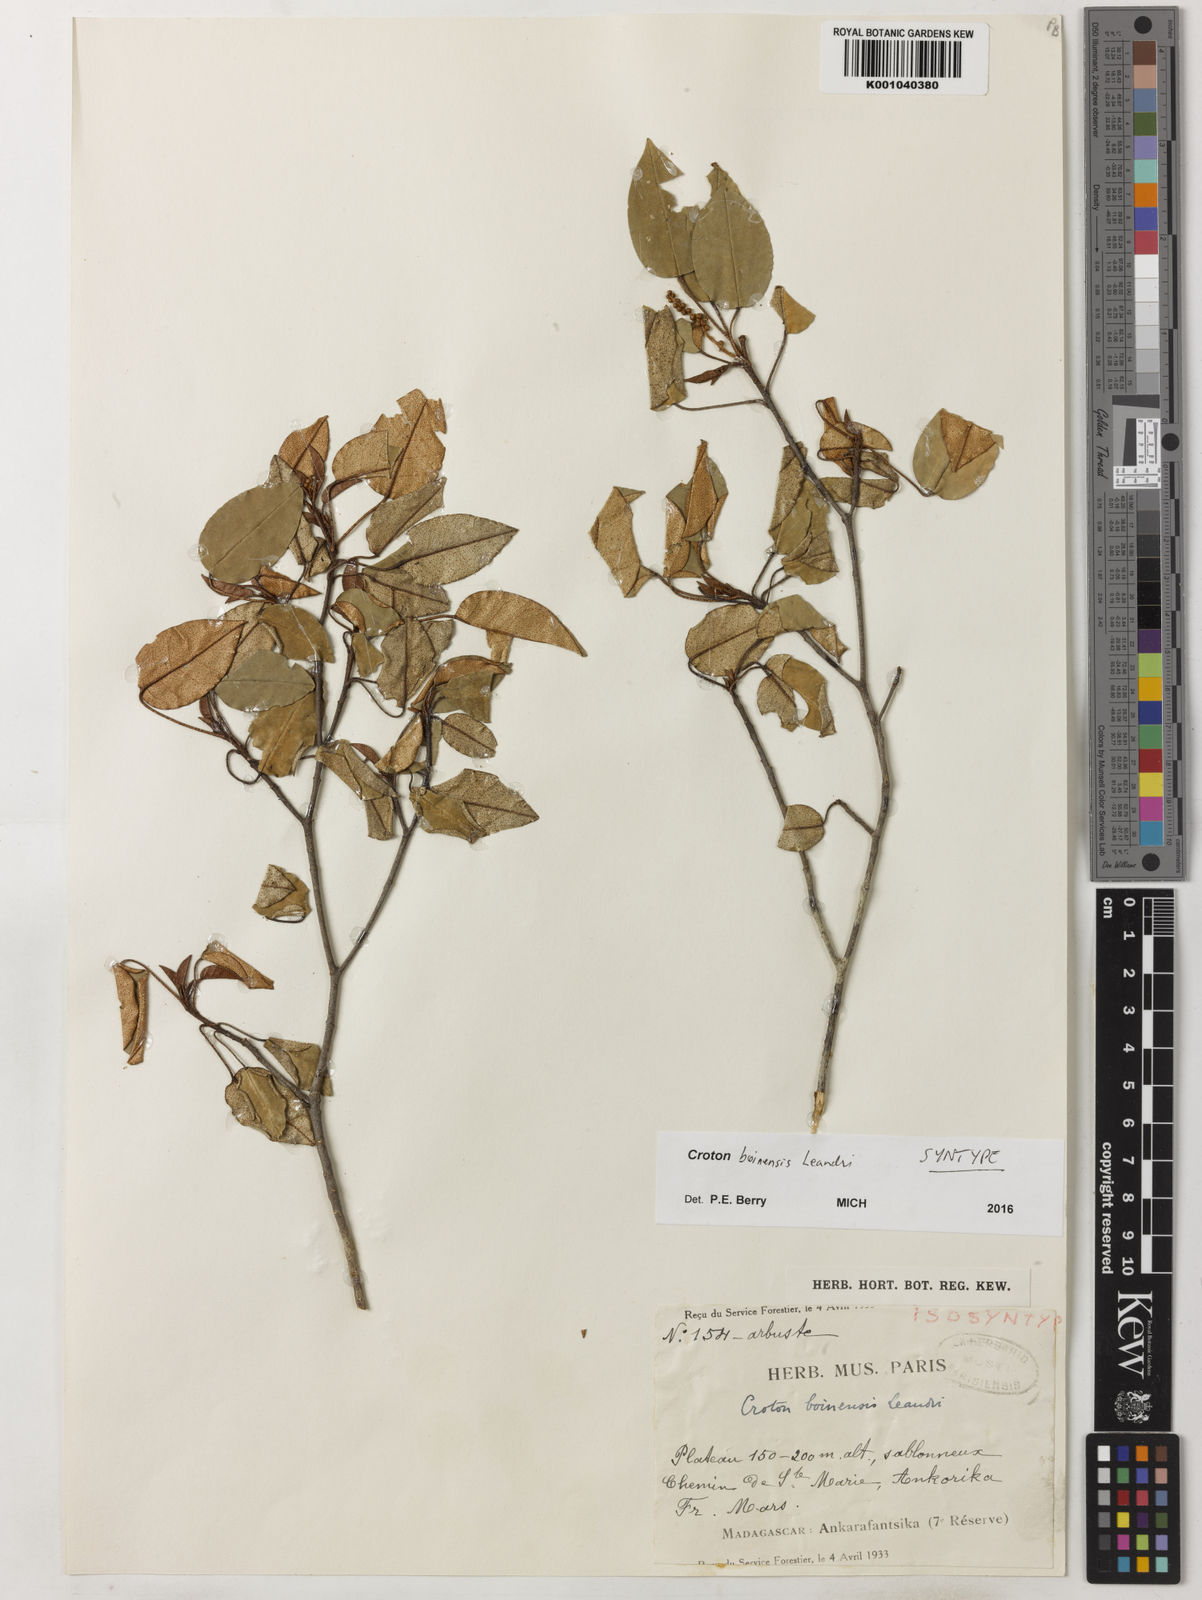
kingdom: Plantae
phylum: Tracheophyta
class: Magnoliopsida
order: Malpighiales
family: Euphorbiaceae
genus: Croton
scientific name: Croton boinensis
